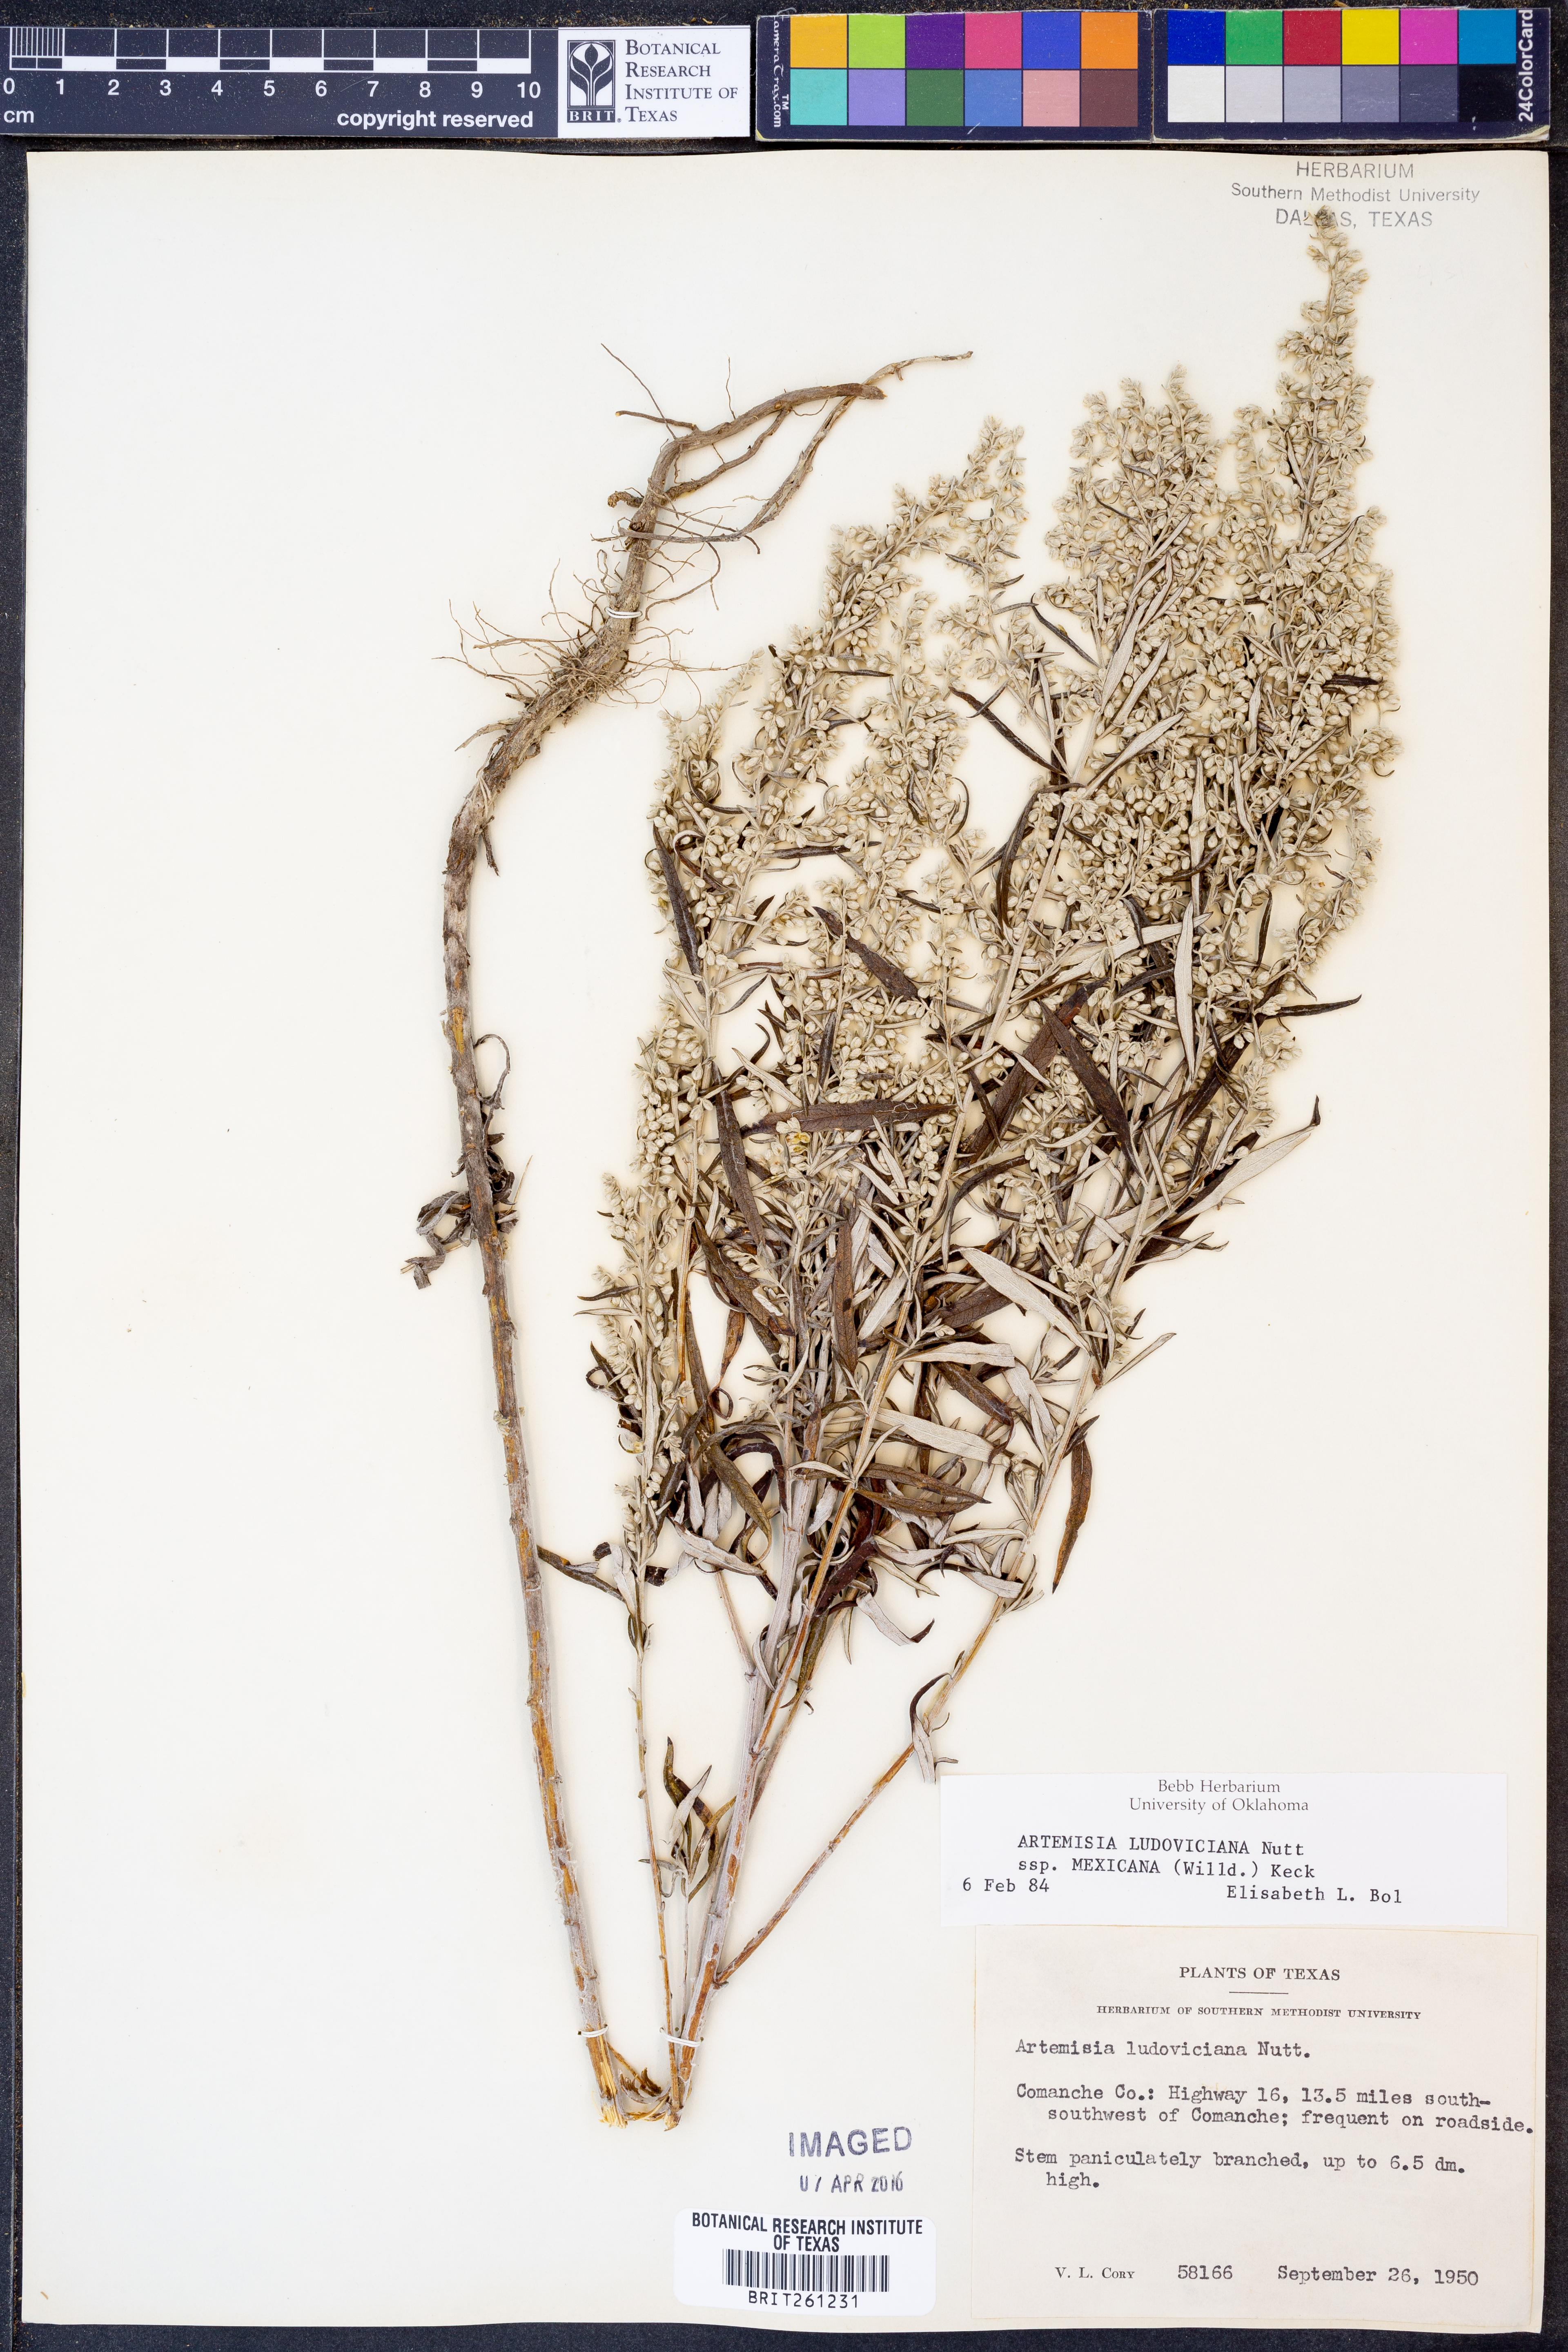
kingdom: Plantae
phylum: Tracheophyta
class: Magnoliopsida
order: Asterales
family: Asteraceae
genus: Artemisia
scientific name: Artemisia ludoviciana
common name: Western mugwort
